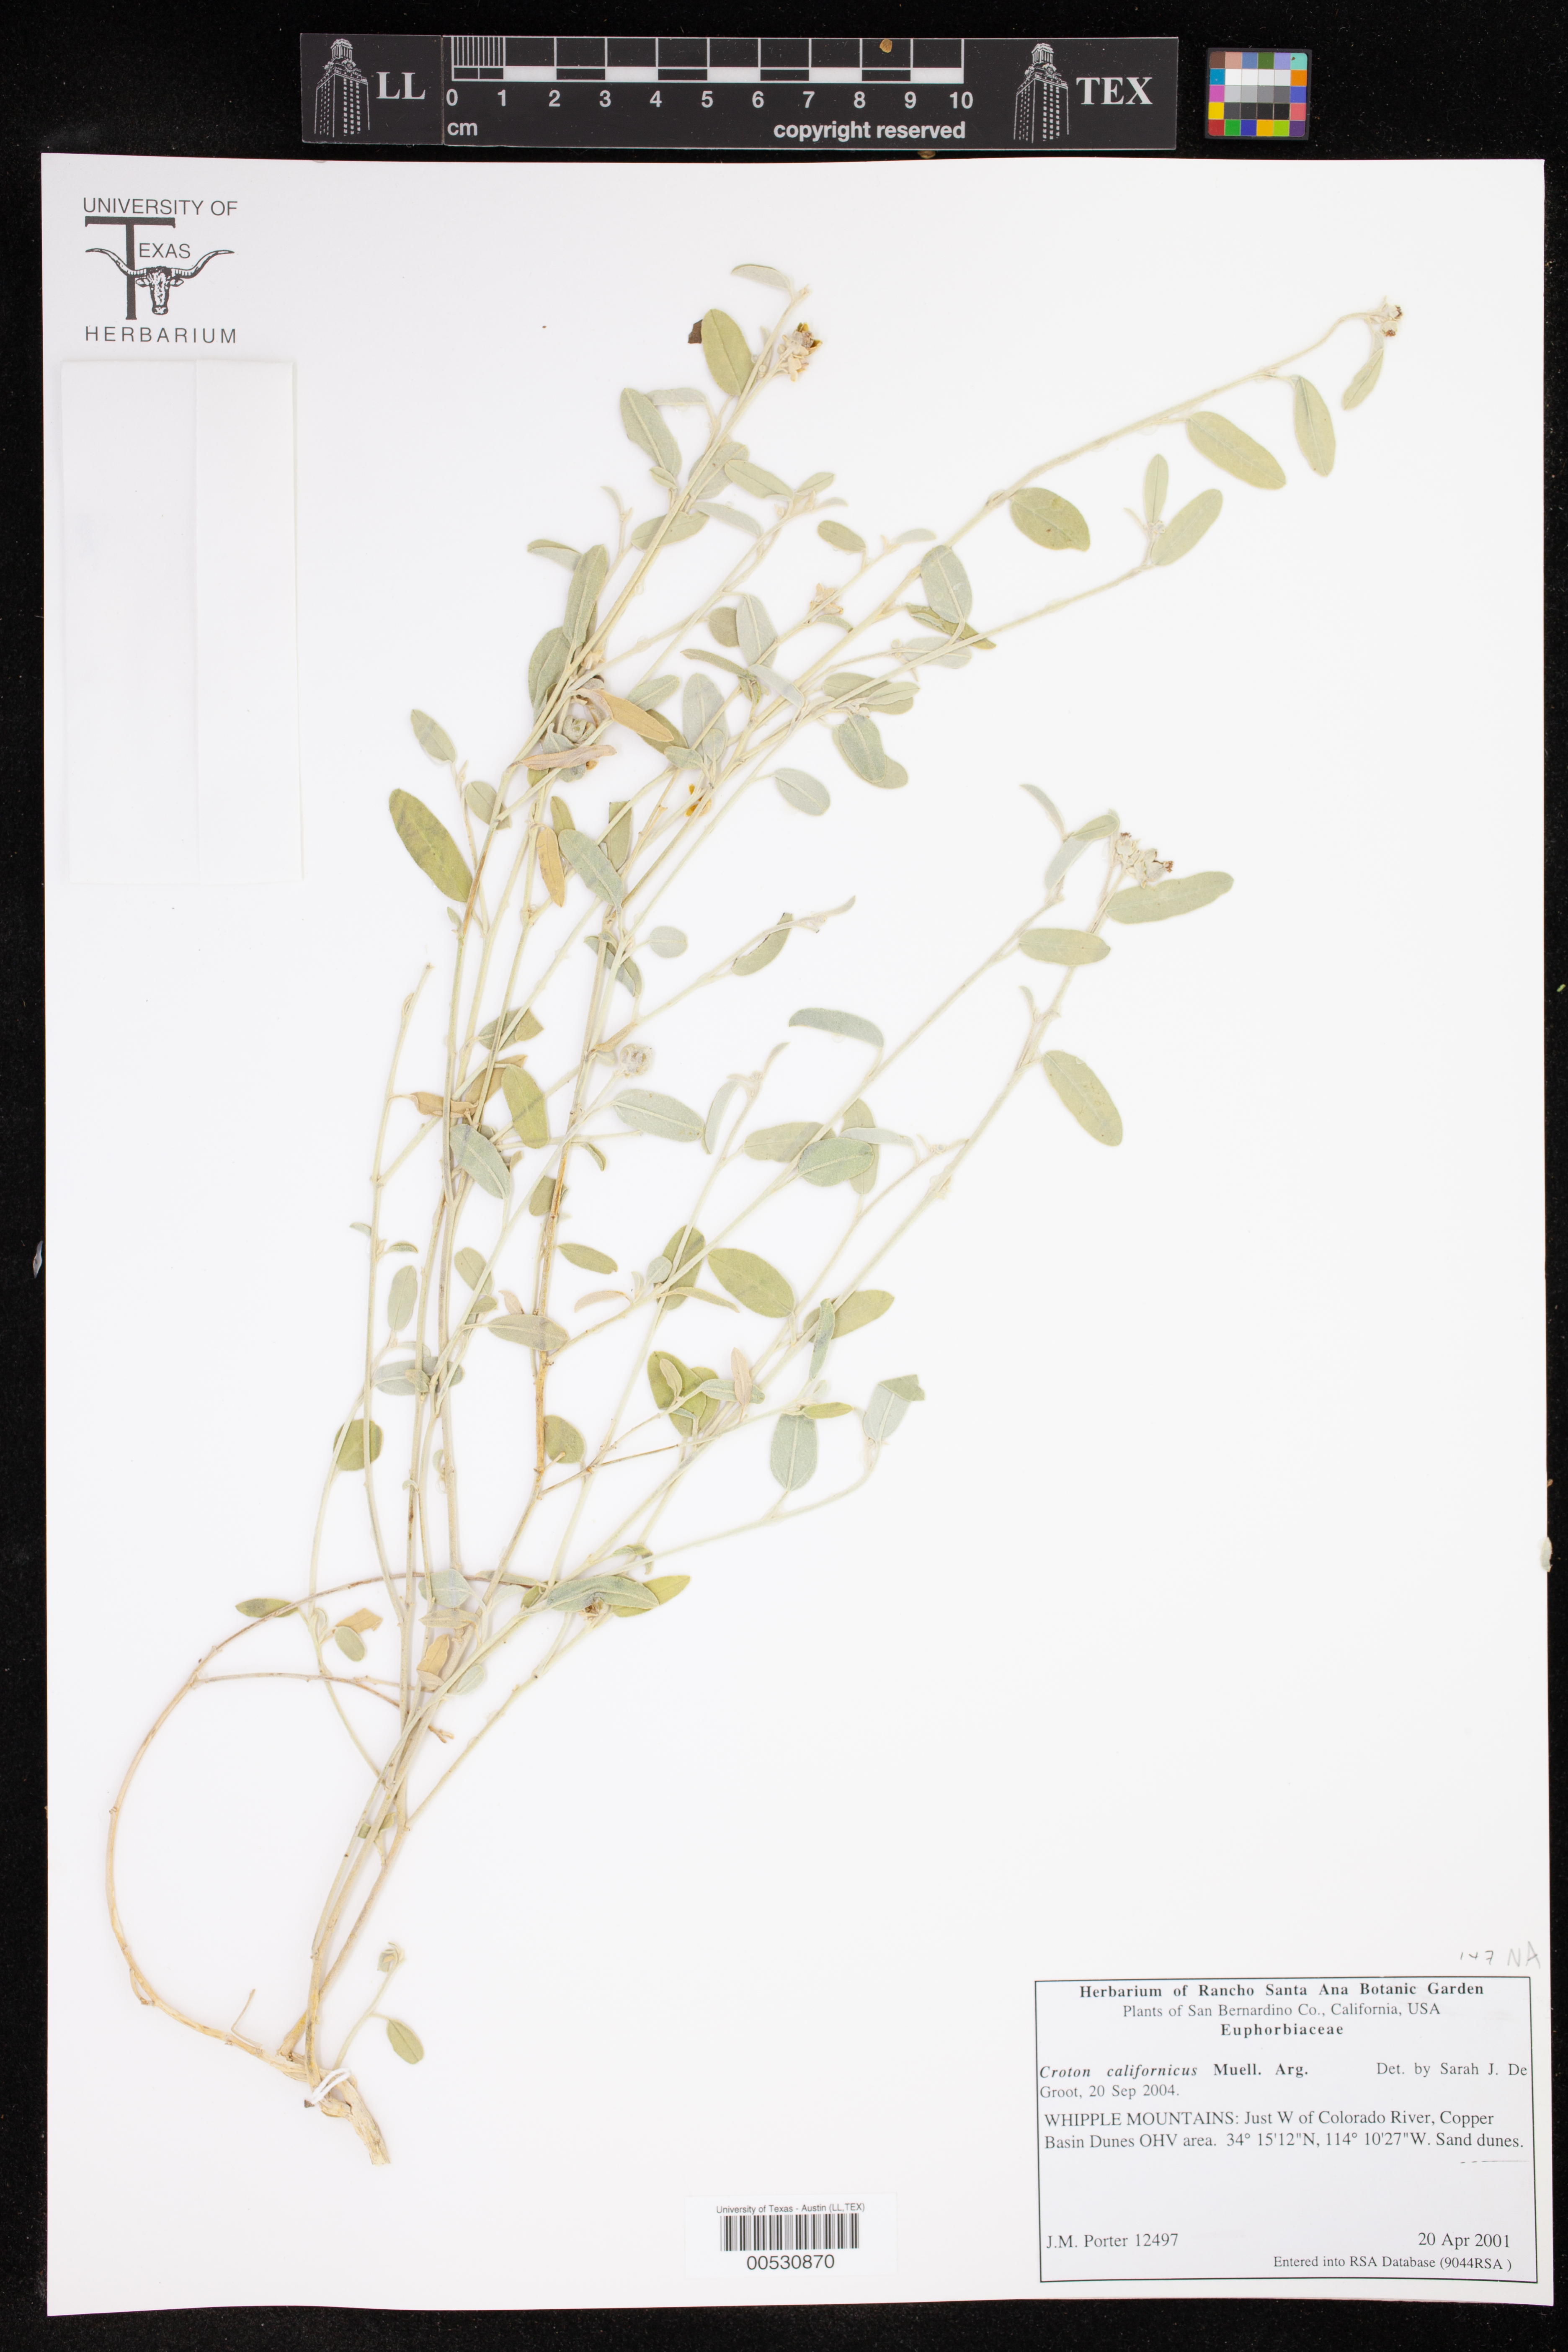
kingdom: Plantae
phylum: Tracheophyta
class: Magnoliopsida
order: Malpighiales
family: Euphorbiaceae
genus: Croton
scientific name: Croton californicus
